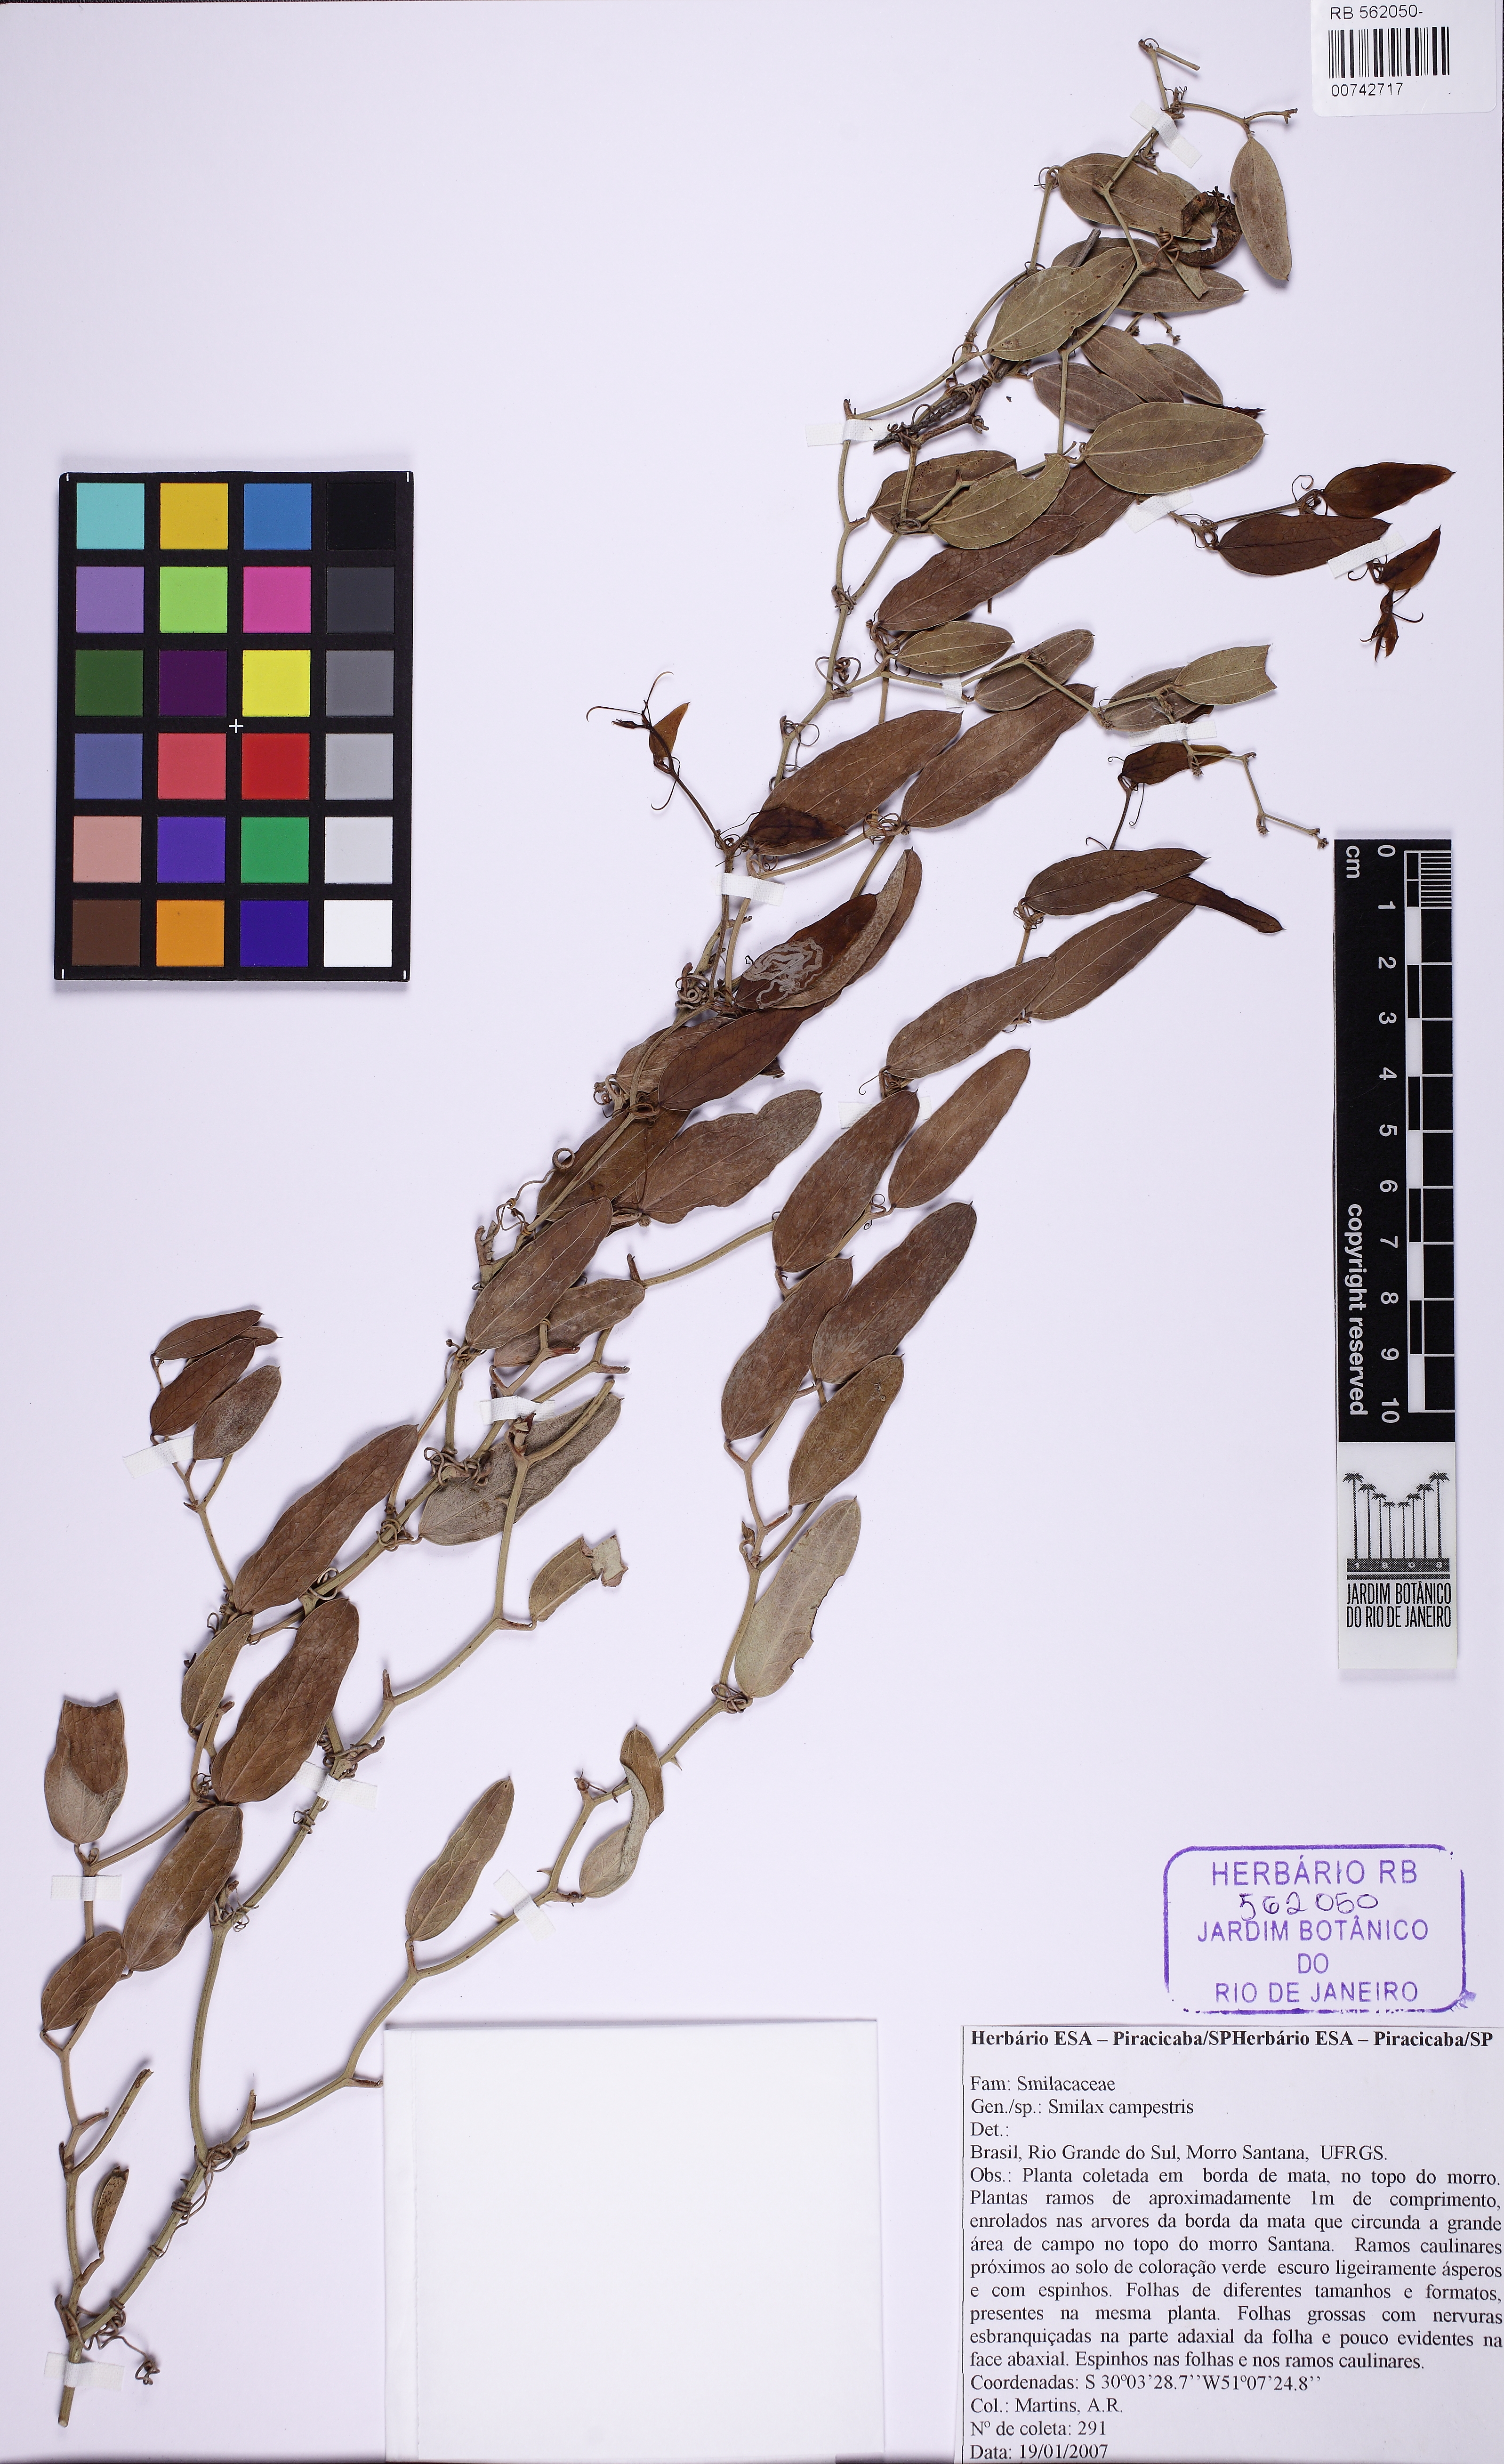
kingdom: Plantae
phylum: Tracheophyta
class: Liliopsida
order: Liliales
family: Smilacaceae
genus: Smilax
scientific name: Smilax campestris
